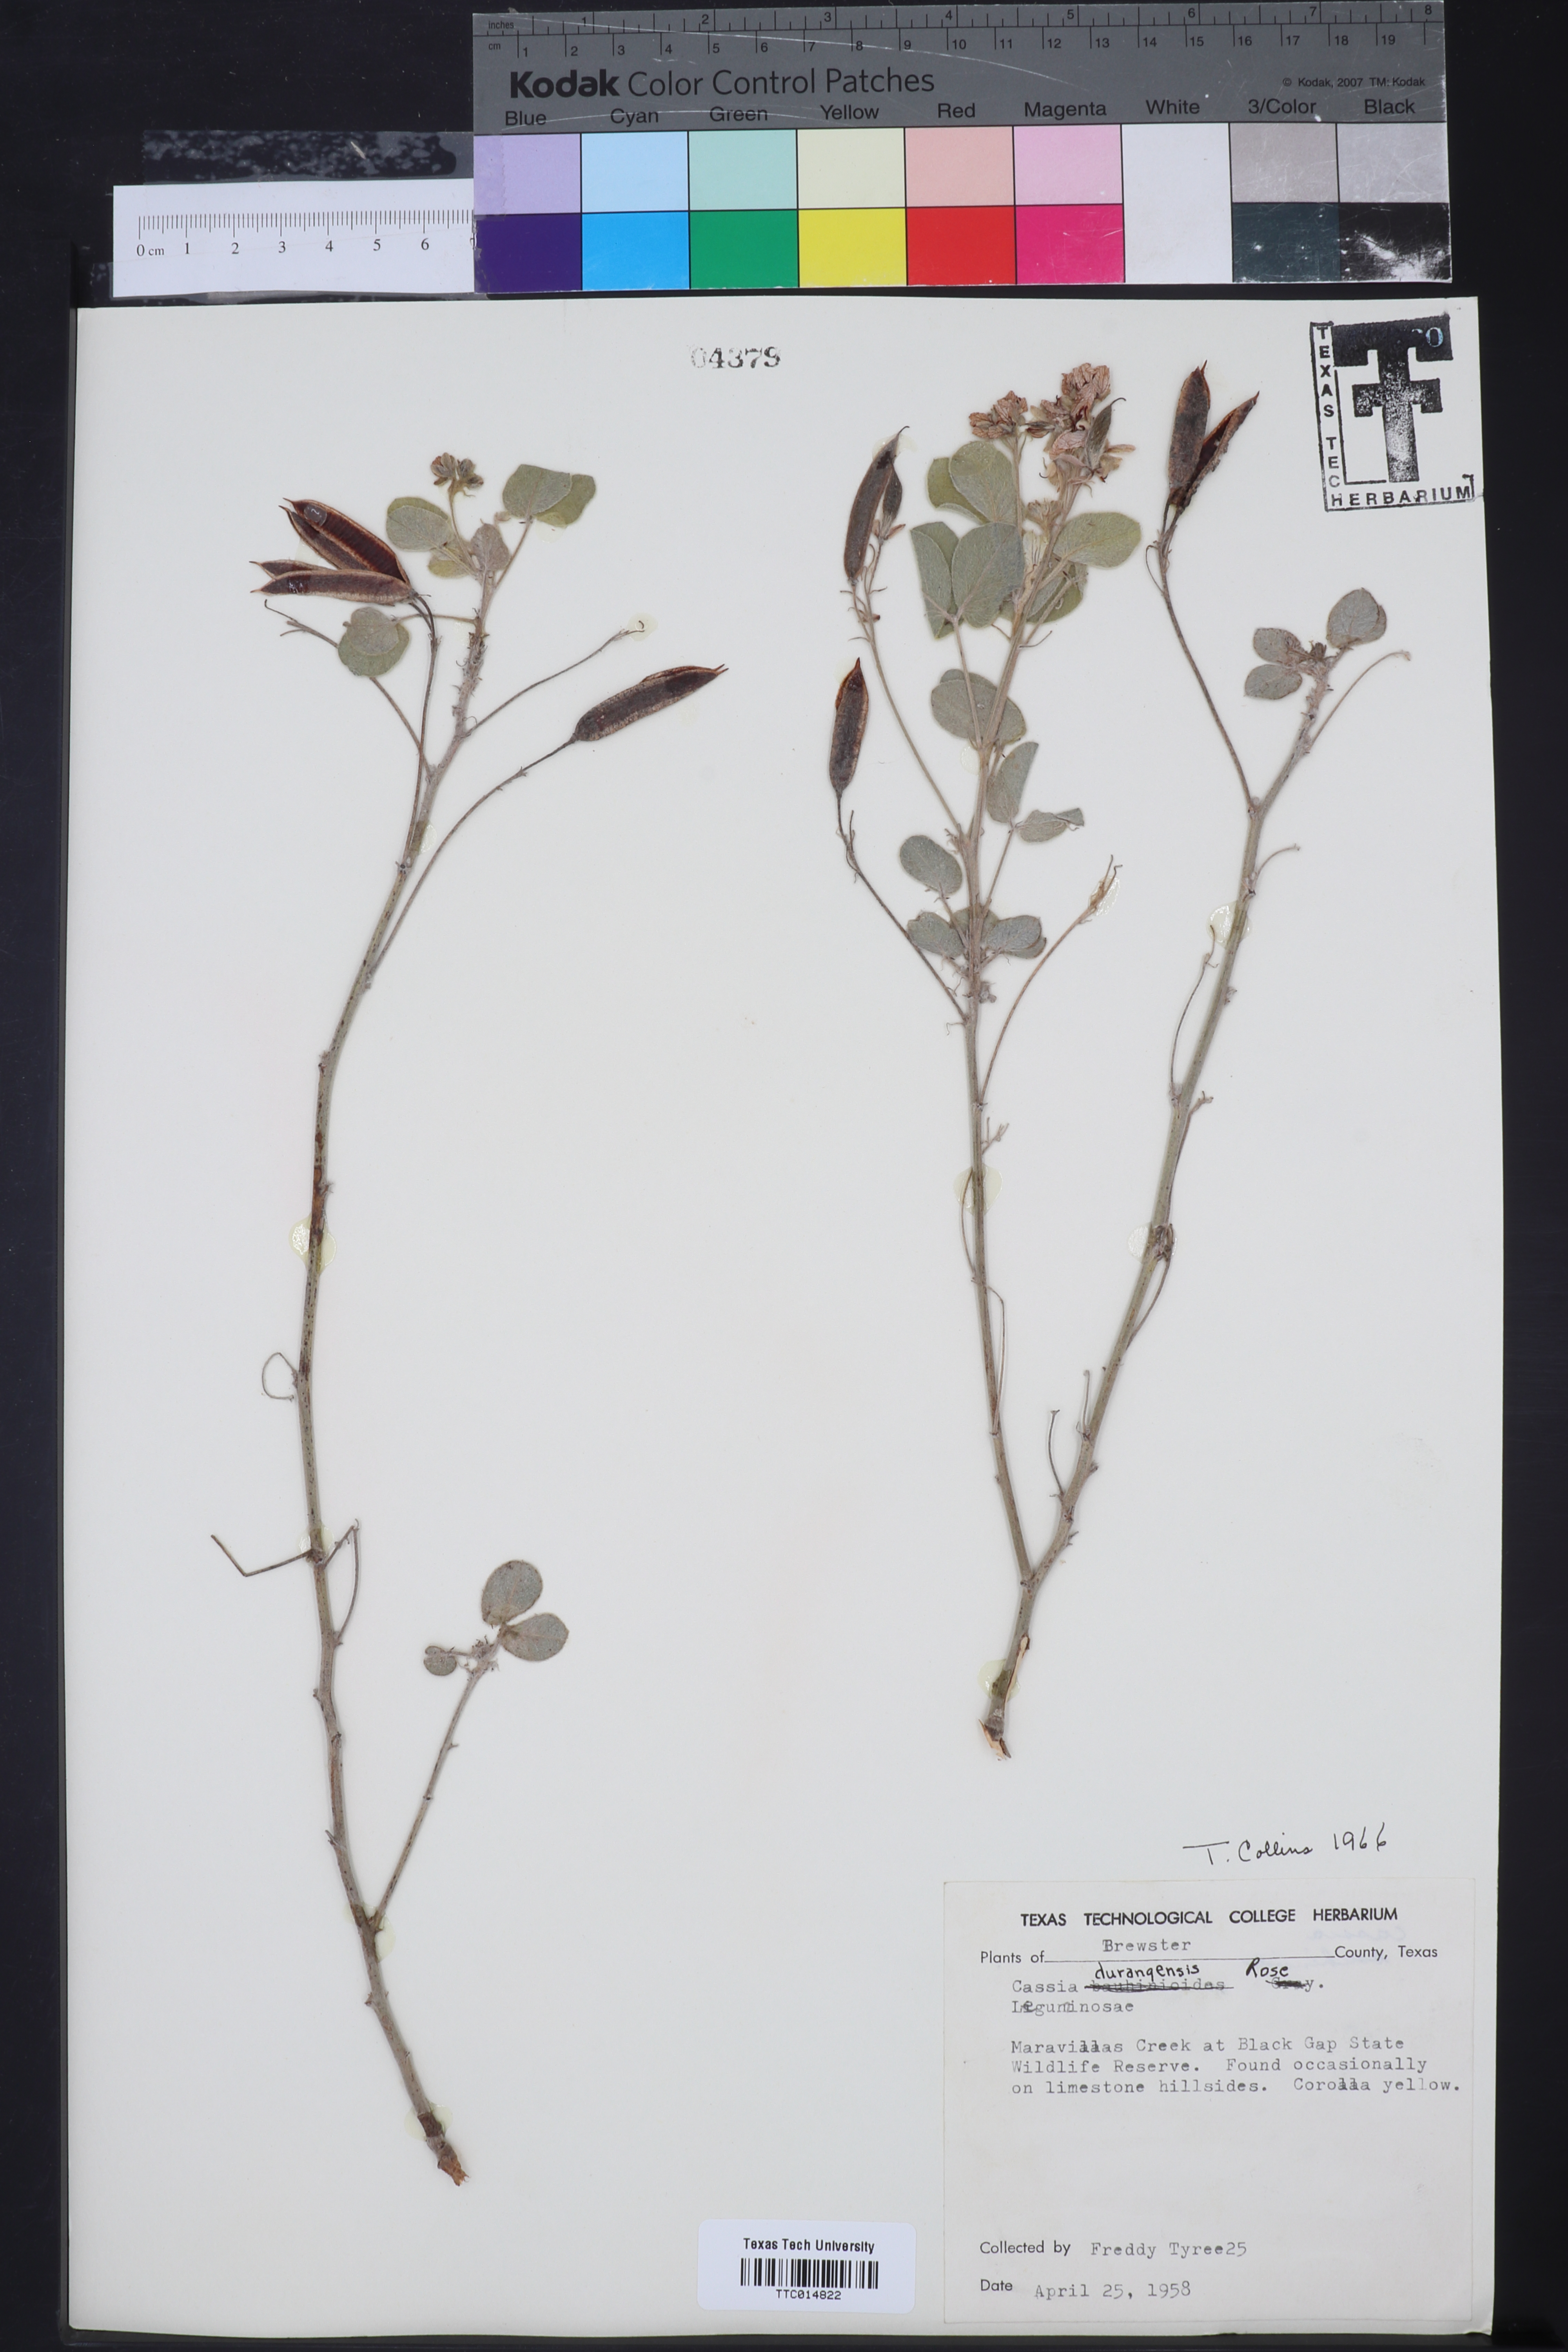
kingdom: Plantae
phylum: Tracheophyta
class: Magnoliopsida
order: Fabales
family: Fabaceae
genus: Senna
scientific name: Senna durangensis
